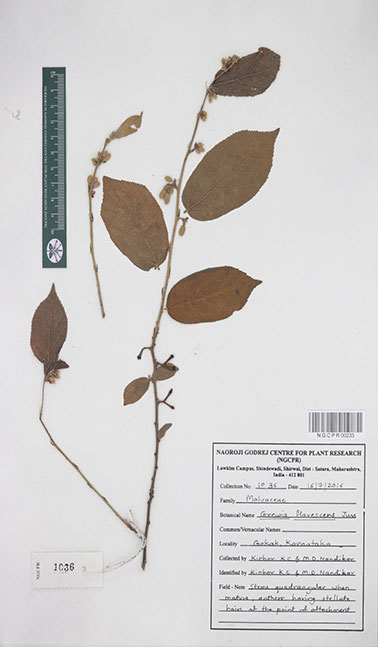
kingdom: Plantae
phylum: Tracheophyta
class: Magnoliopsida
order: Malvales
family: Malvaceae
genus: Grewia
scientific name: Grewia flavescens
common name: Sandpaper raisin
